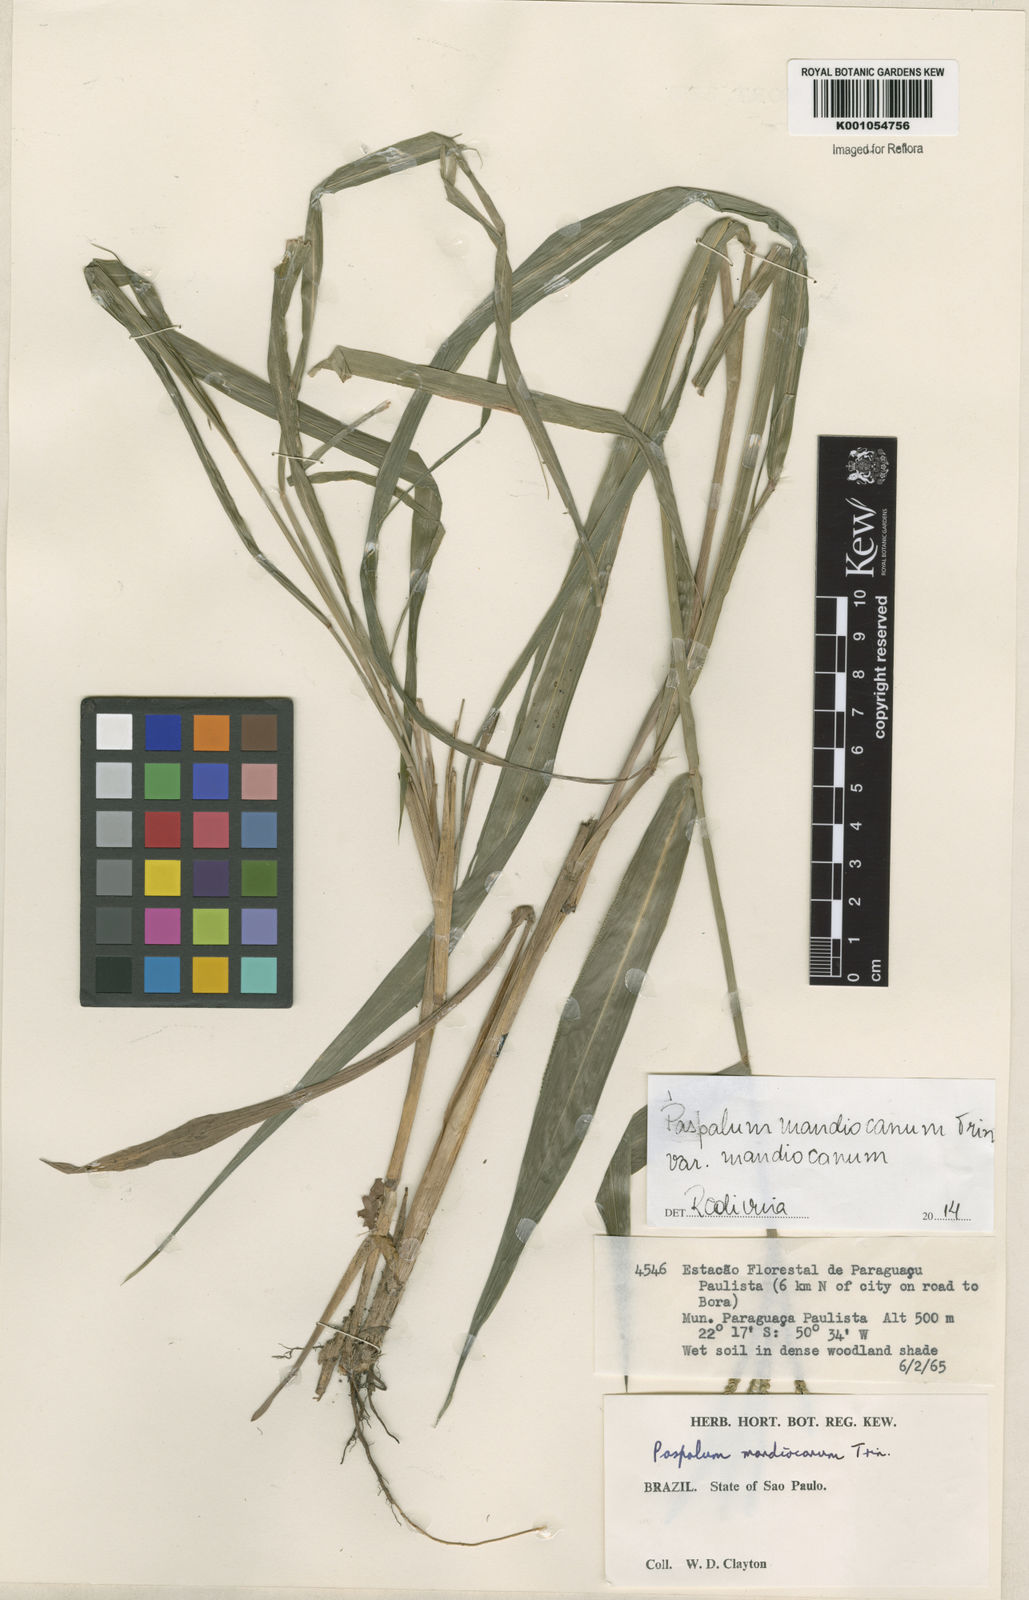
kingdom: Plantae
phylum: Tracheophyta
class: Liliopsida
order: Poales
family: Poaceae
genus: Paspalum
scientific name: Paspalum mandiocanum
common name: Paspalum
